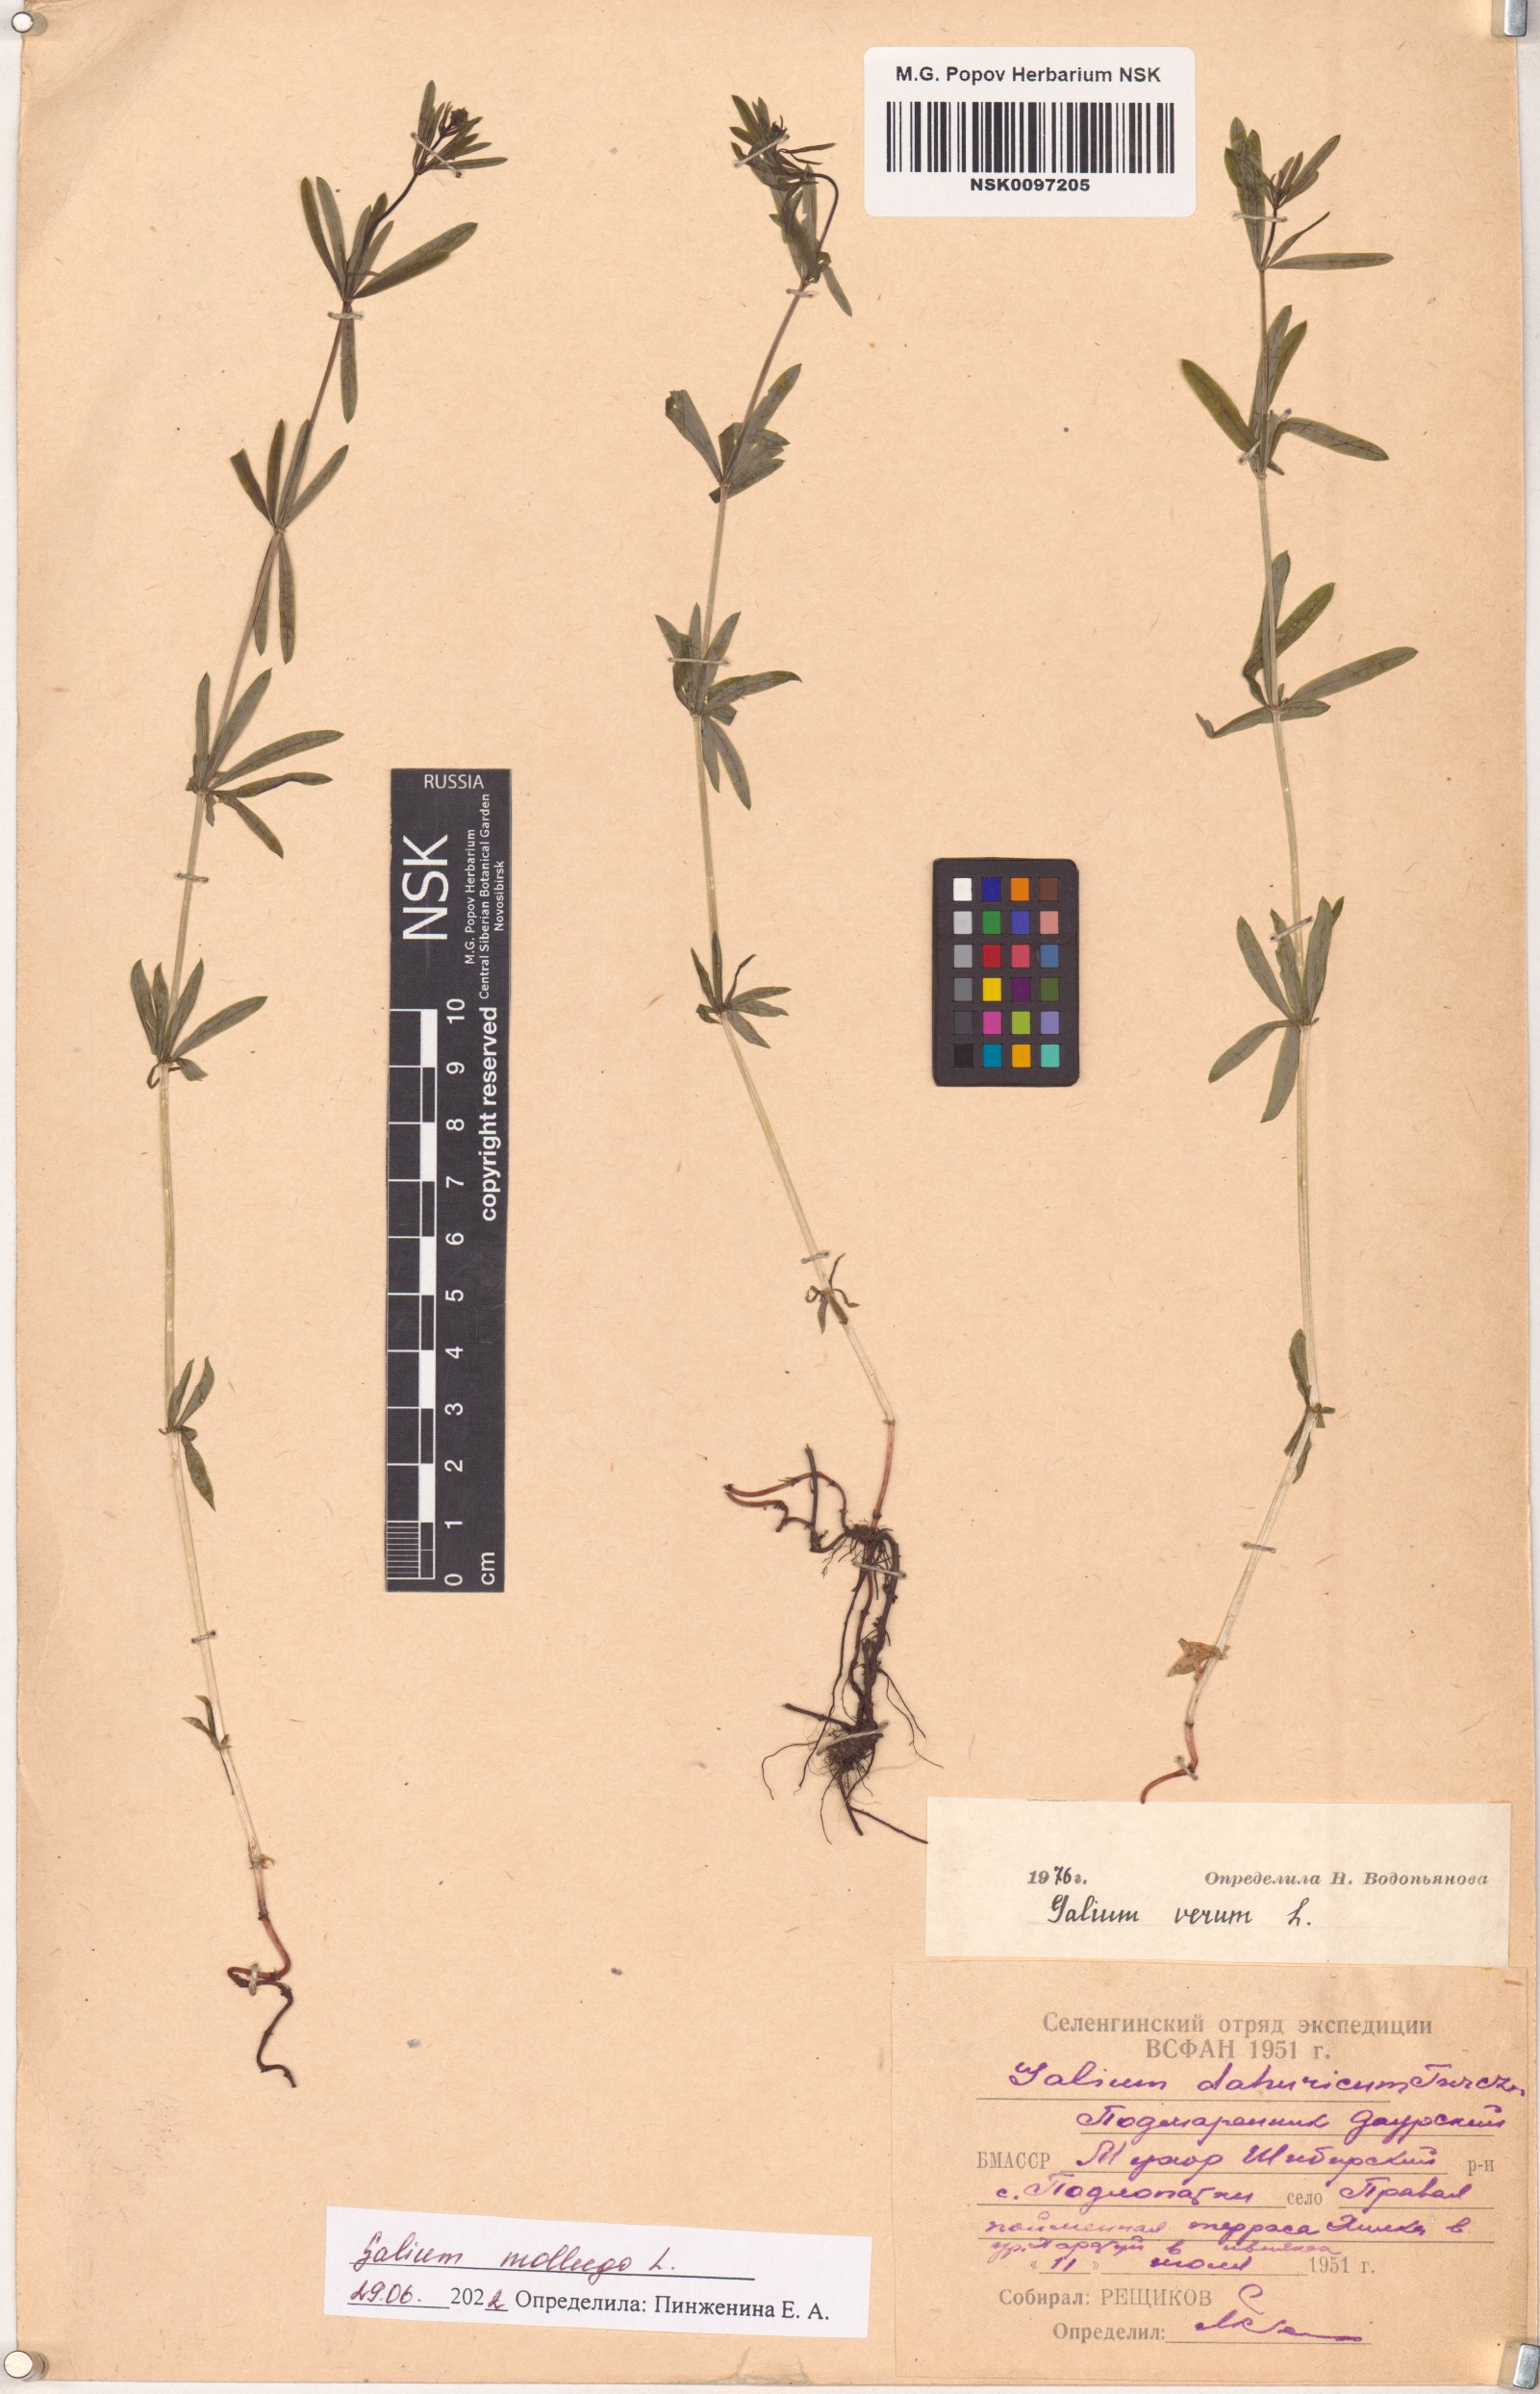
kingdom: Plantae
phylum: Tracheophyta
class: Magnoliopsida
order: Gentianales
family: Rubiaceae
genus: Galium
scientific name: Galium mollugo
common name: Hedge bedstraw
